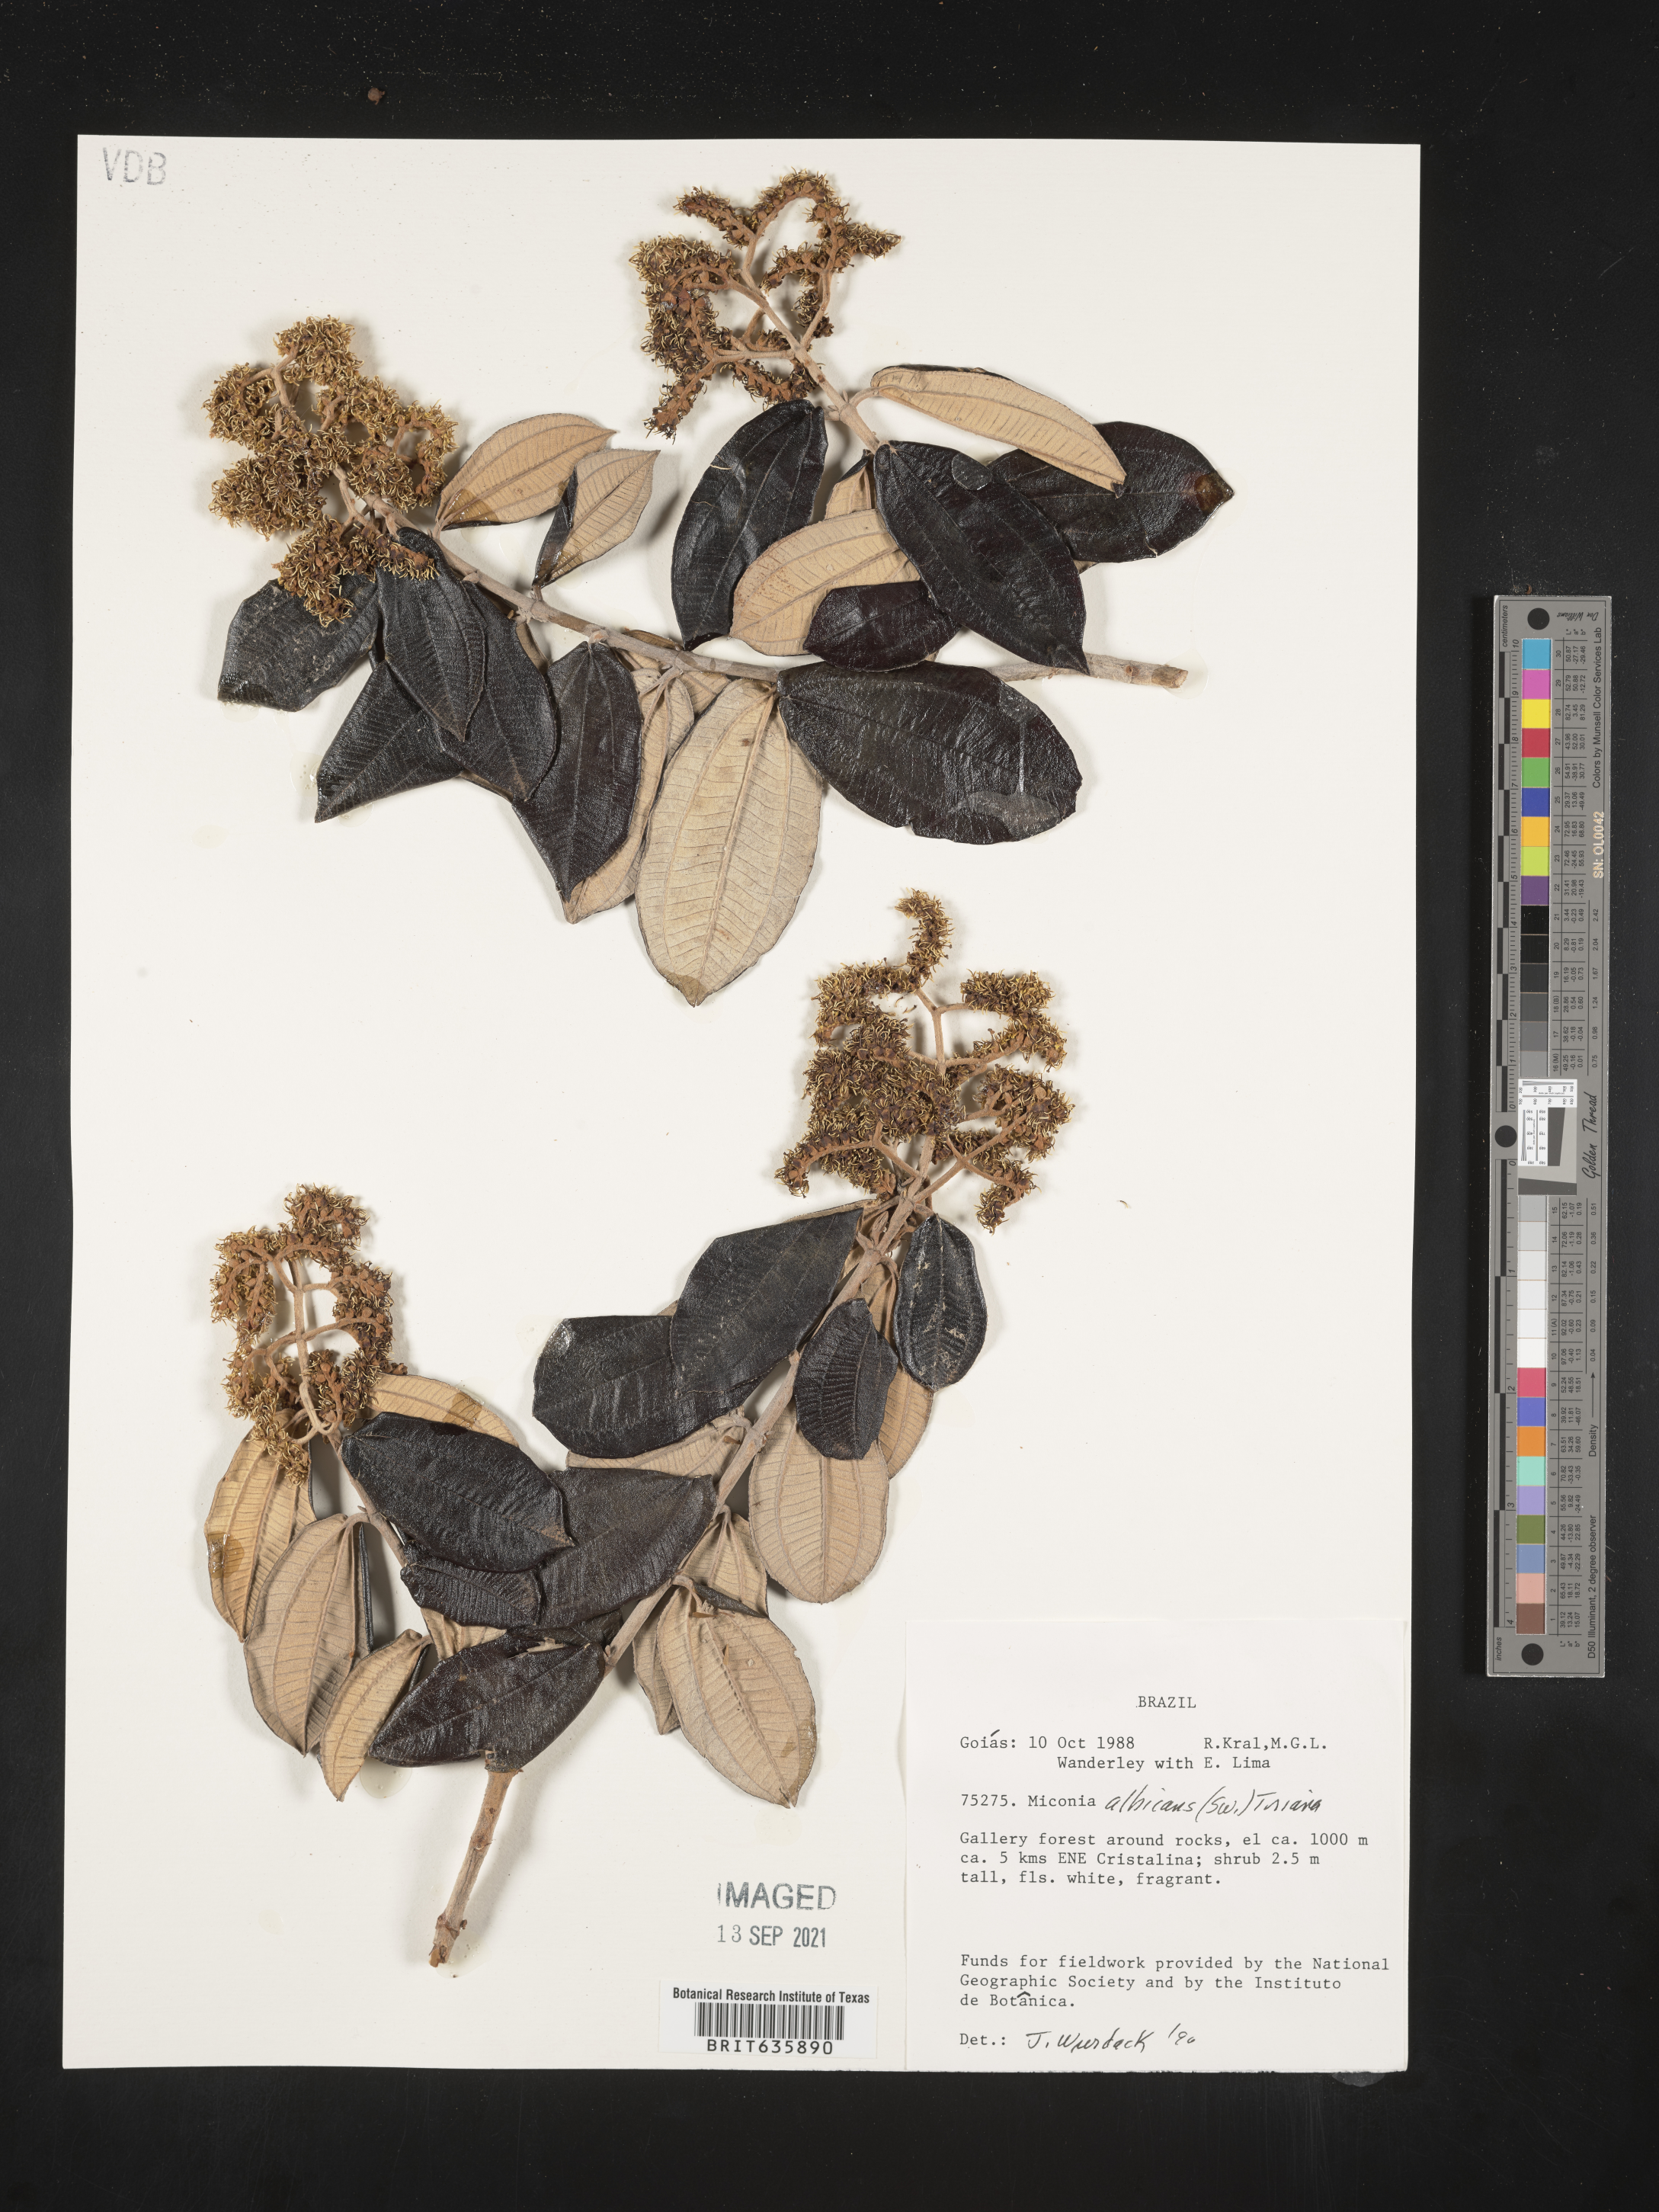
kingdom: Plantae
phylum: Tracheophyta
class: Magnoliopsida
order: Myrtales
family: Melastomataceae
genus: Miconia
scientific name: Miconia
